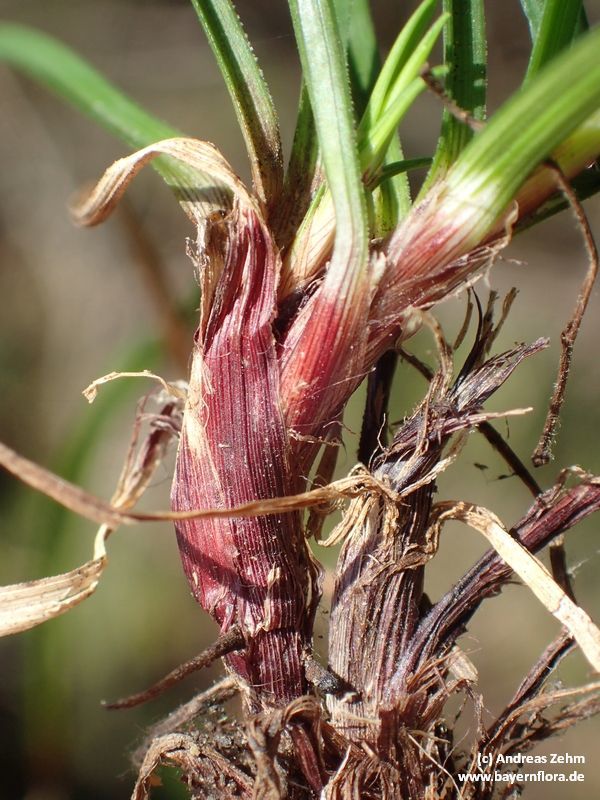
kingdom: Plantae
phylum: Tracheophyta
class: Liliopsida
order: Poales
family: Cyperaceae
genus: Carex
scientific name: Carex digitata
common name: Fingered sedge
